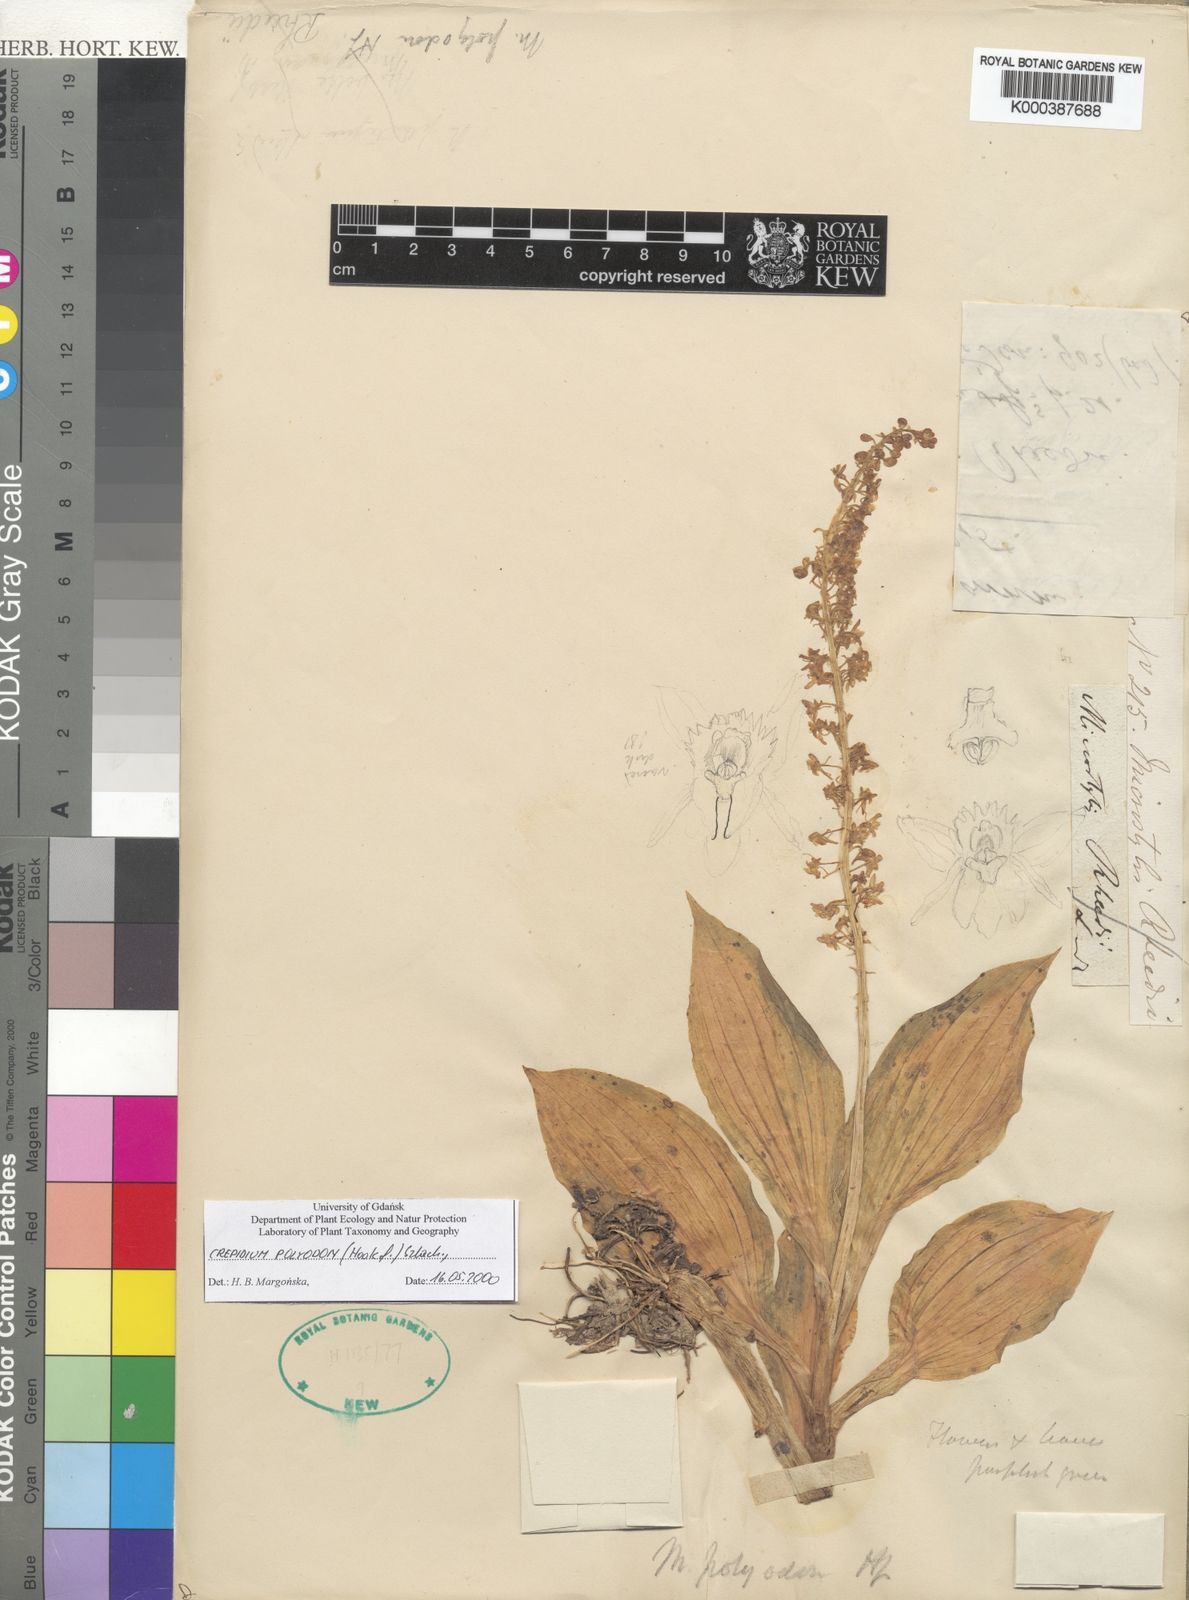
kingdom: Plantae
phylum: Tracheophyta
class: Liliopsida
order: Asparagales
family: Orchidaceae
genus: Crepidium
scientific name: Crepidium polyodon
